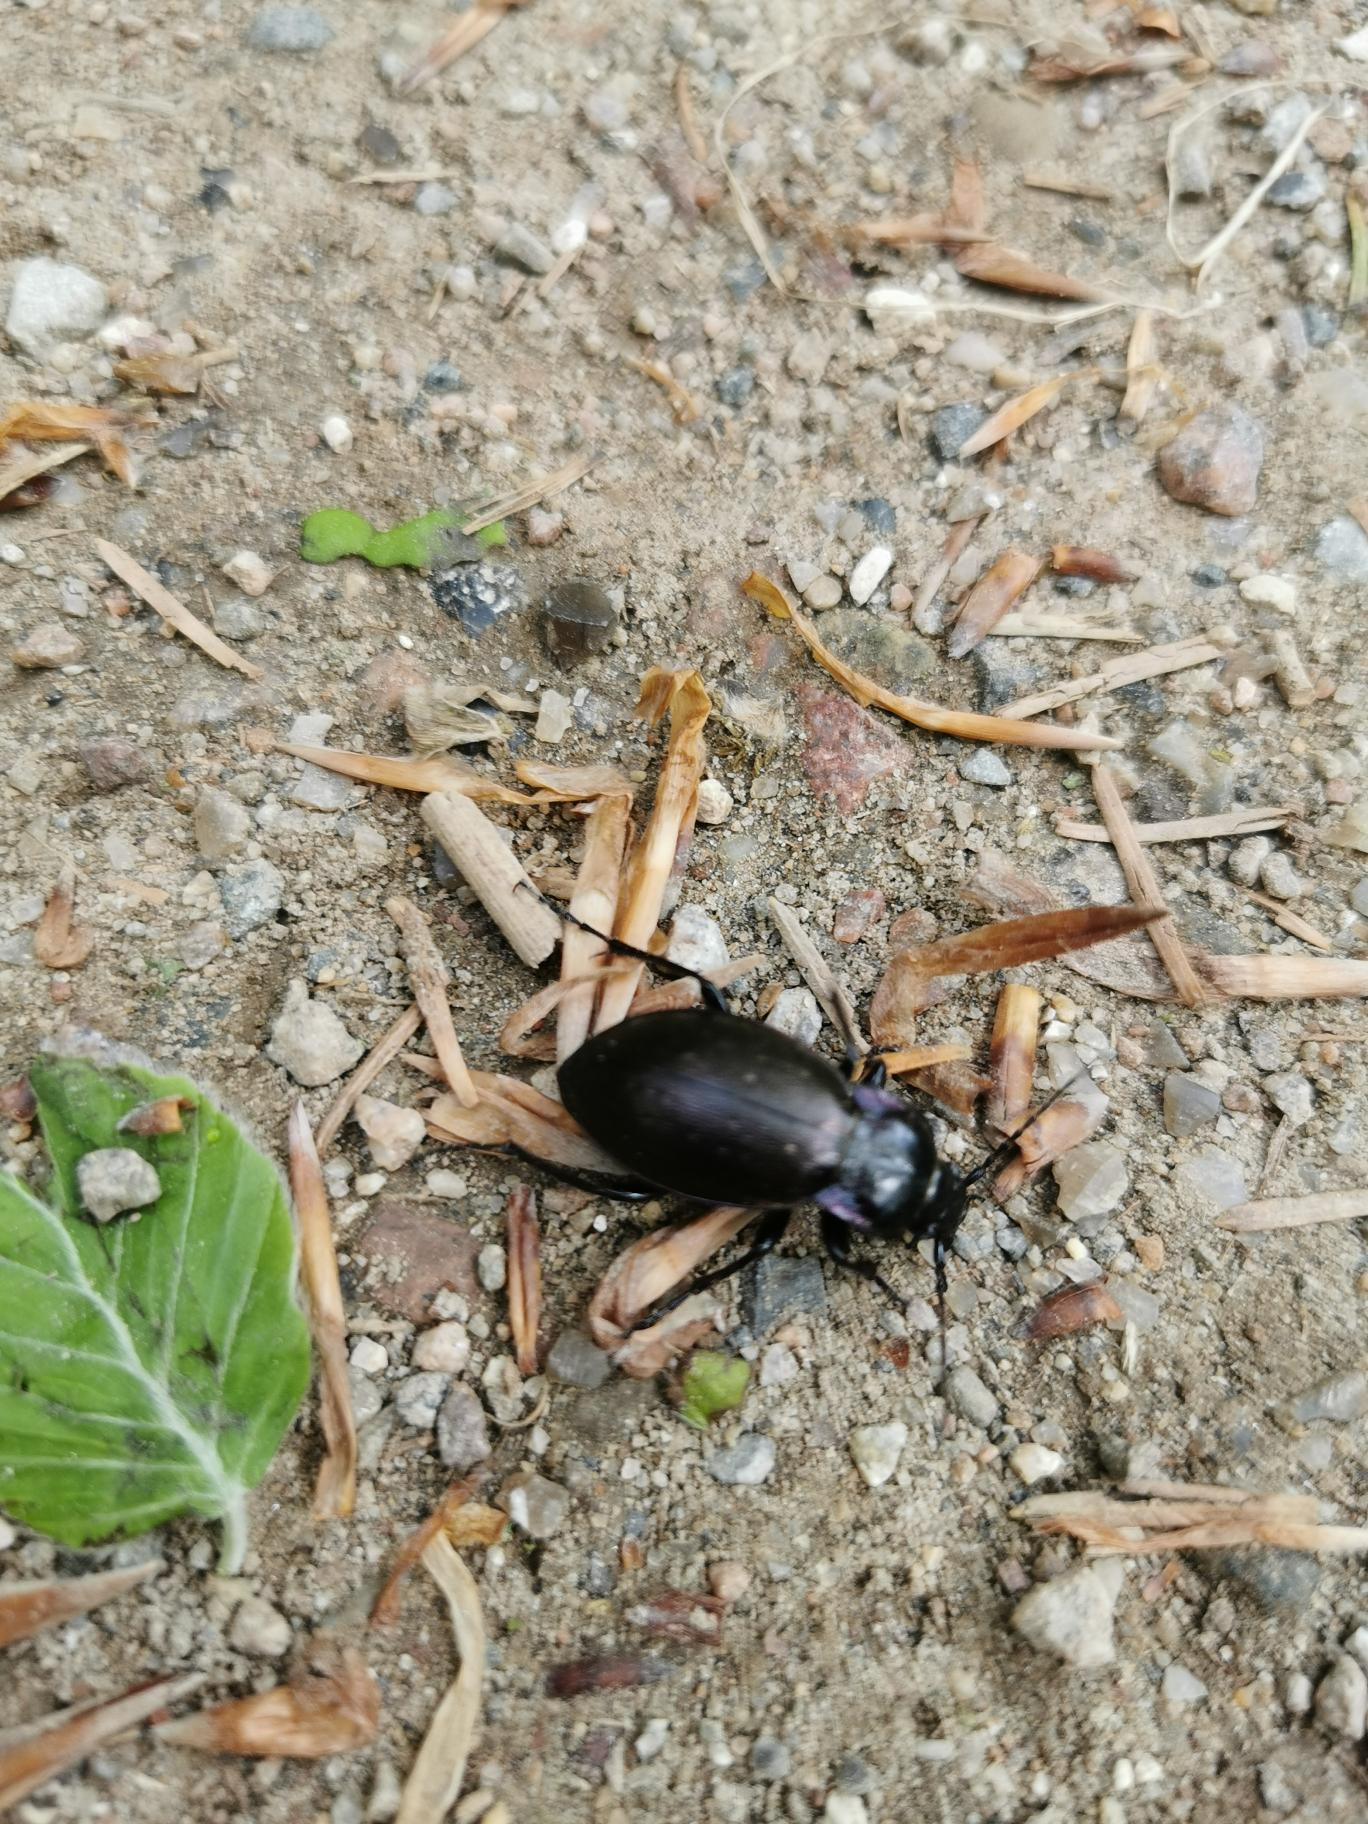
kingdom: Animalia
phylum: Arthropoda
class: Insecta
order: Coleoptera
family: Carabidae
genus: Carabus
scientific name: Carabus nemoralis
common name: Kratløber
